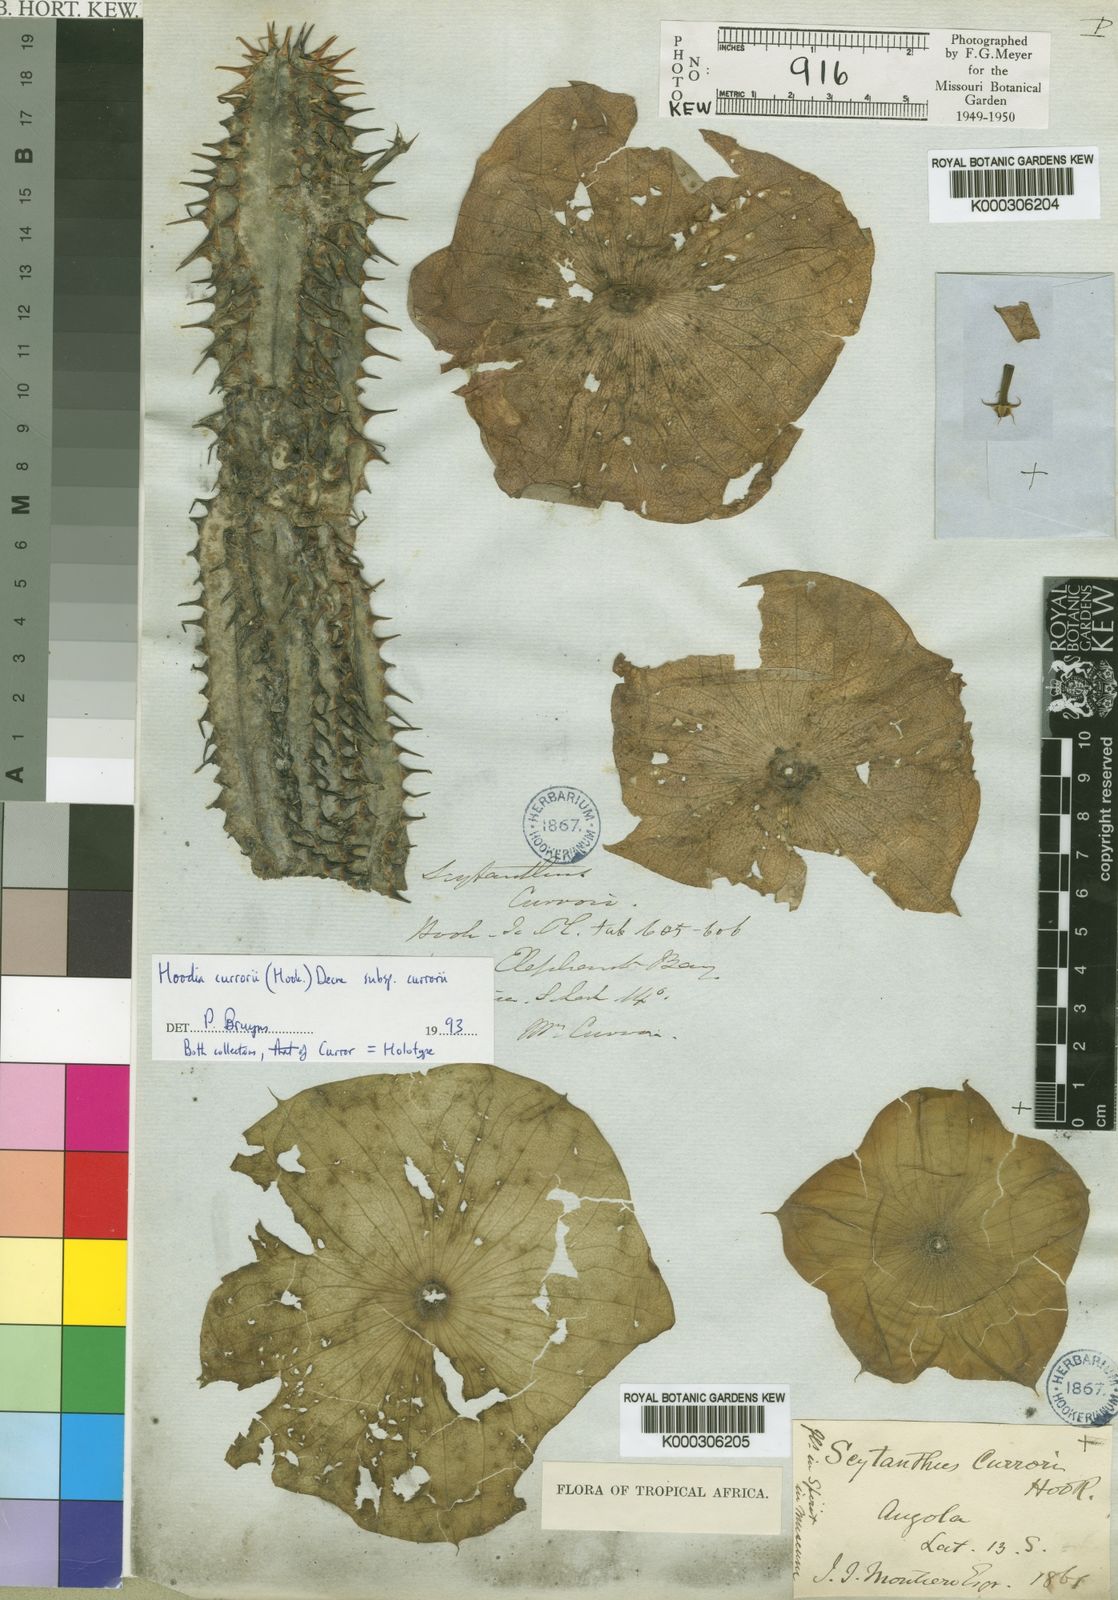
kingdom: Plantae
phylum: Tracheophyta
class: Magnoliopsida
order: Gentianales
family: Apocynaceae
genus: Ceropegia
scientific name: Ceropegia currorii
